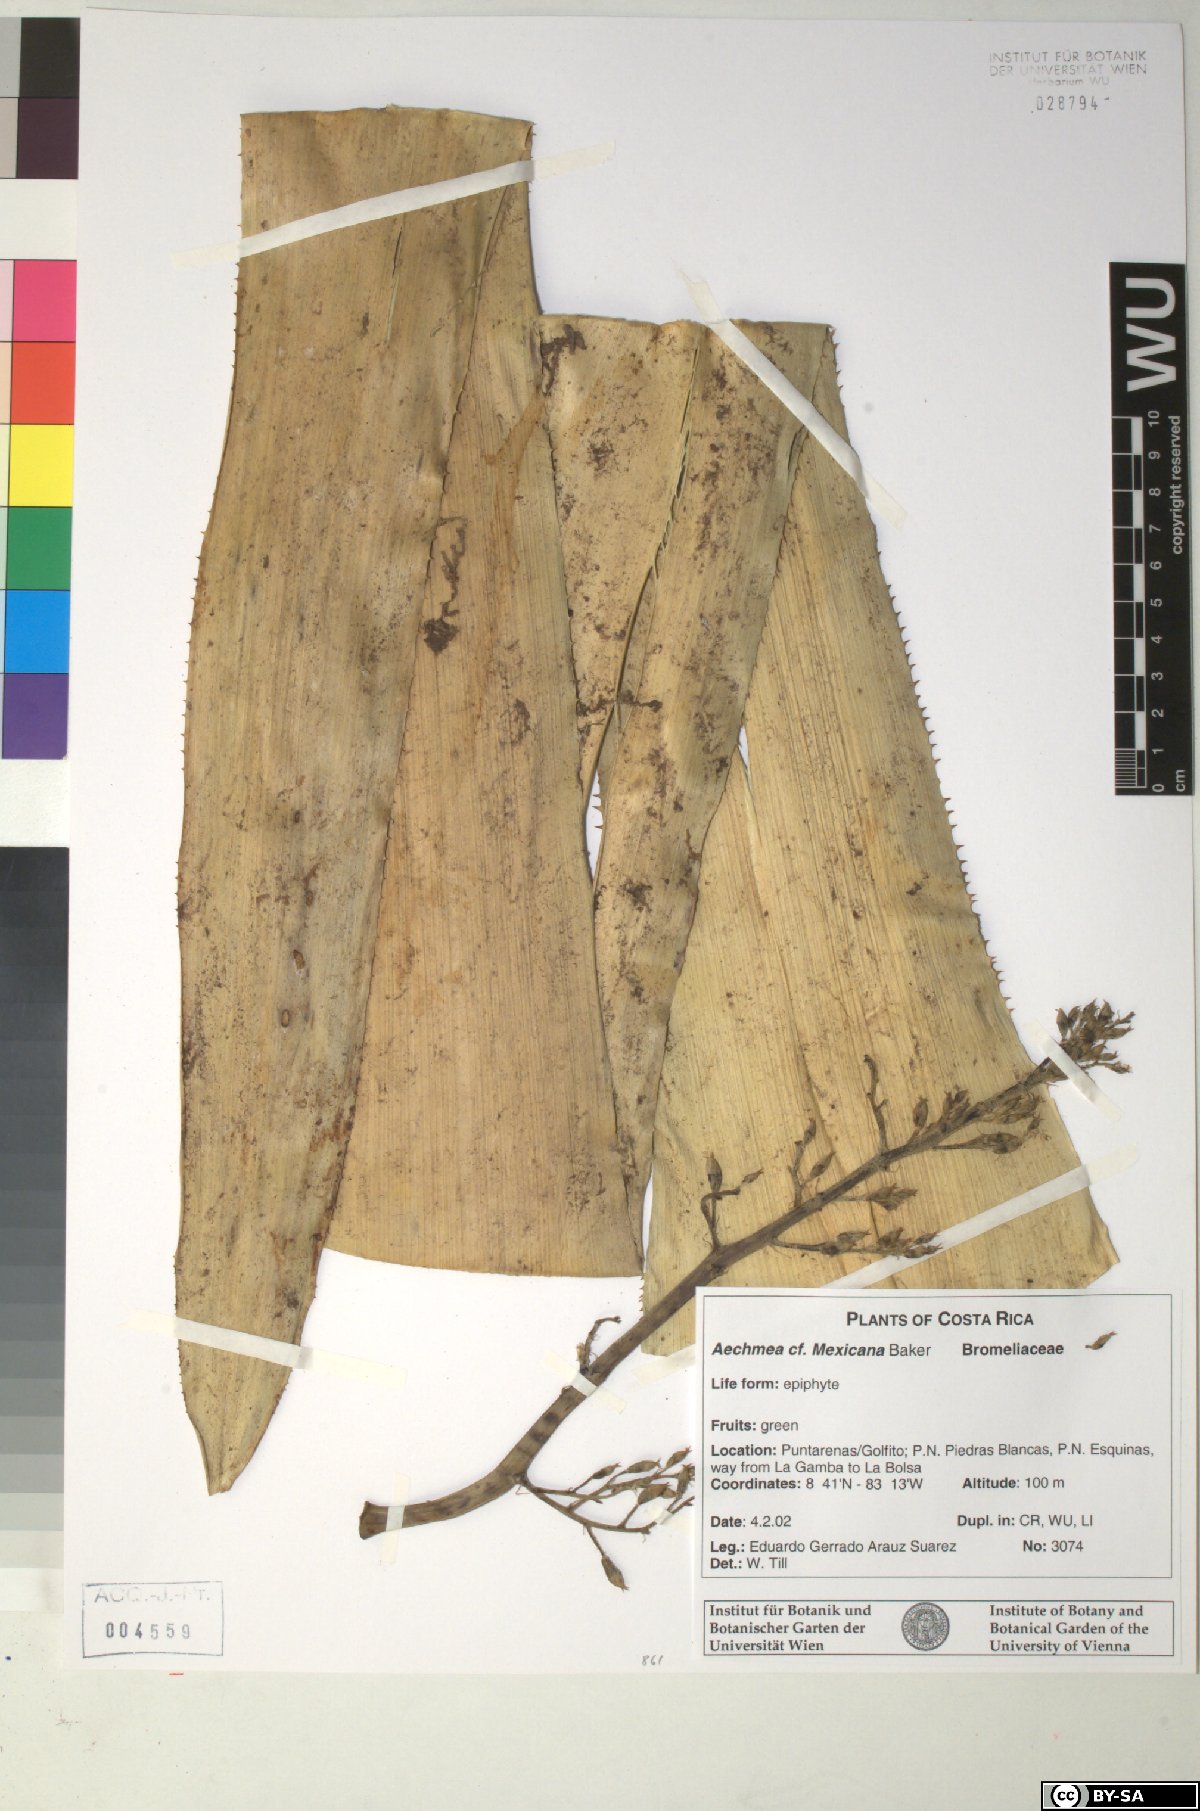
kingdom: Plantae
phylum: Tracheophyta
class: Liliopsida
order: Poales
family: Bromeliaceae
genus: Aechmea
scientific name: Aechmea mexicana
